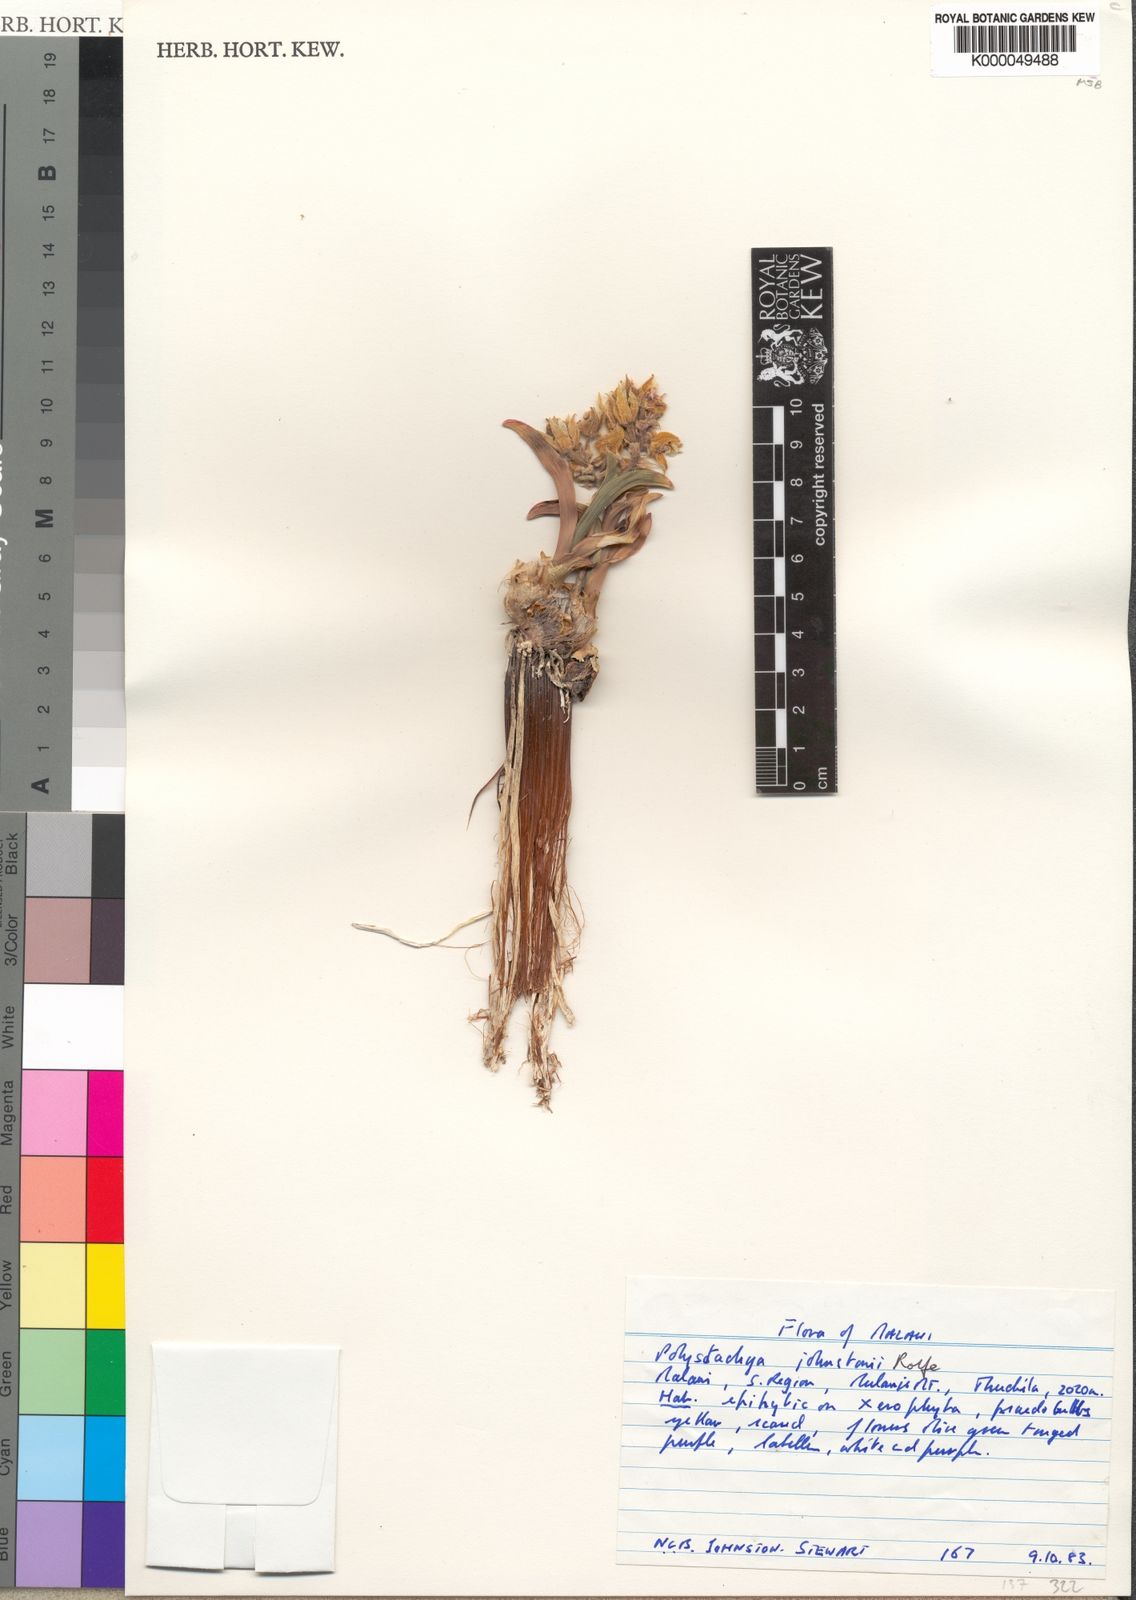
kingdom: Plantae
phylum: Tracheophyta
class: Liliopsida
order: Asparagales
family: Orchidaceae
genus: Polystachya
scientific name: Polystachya johnstonii
